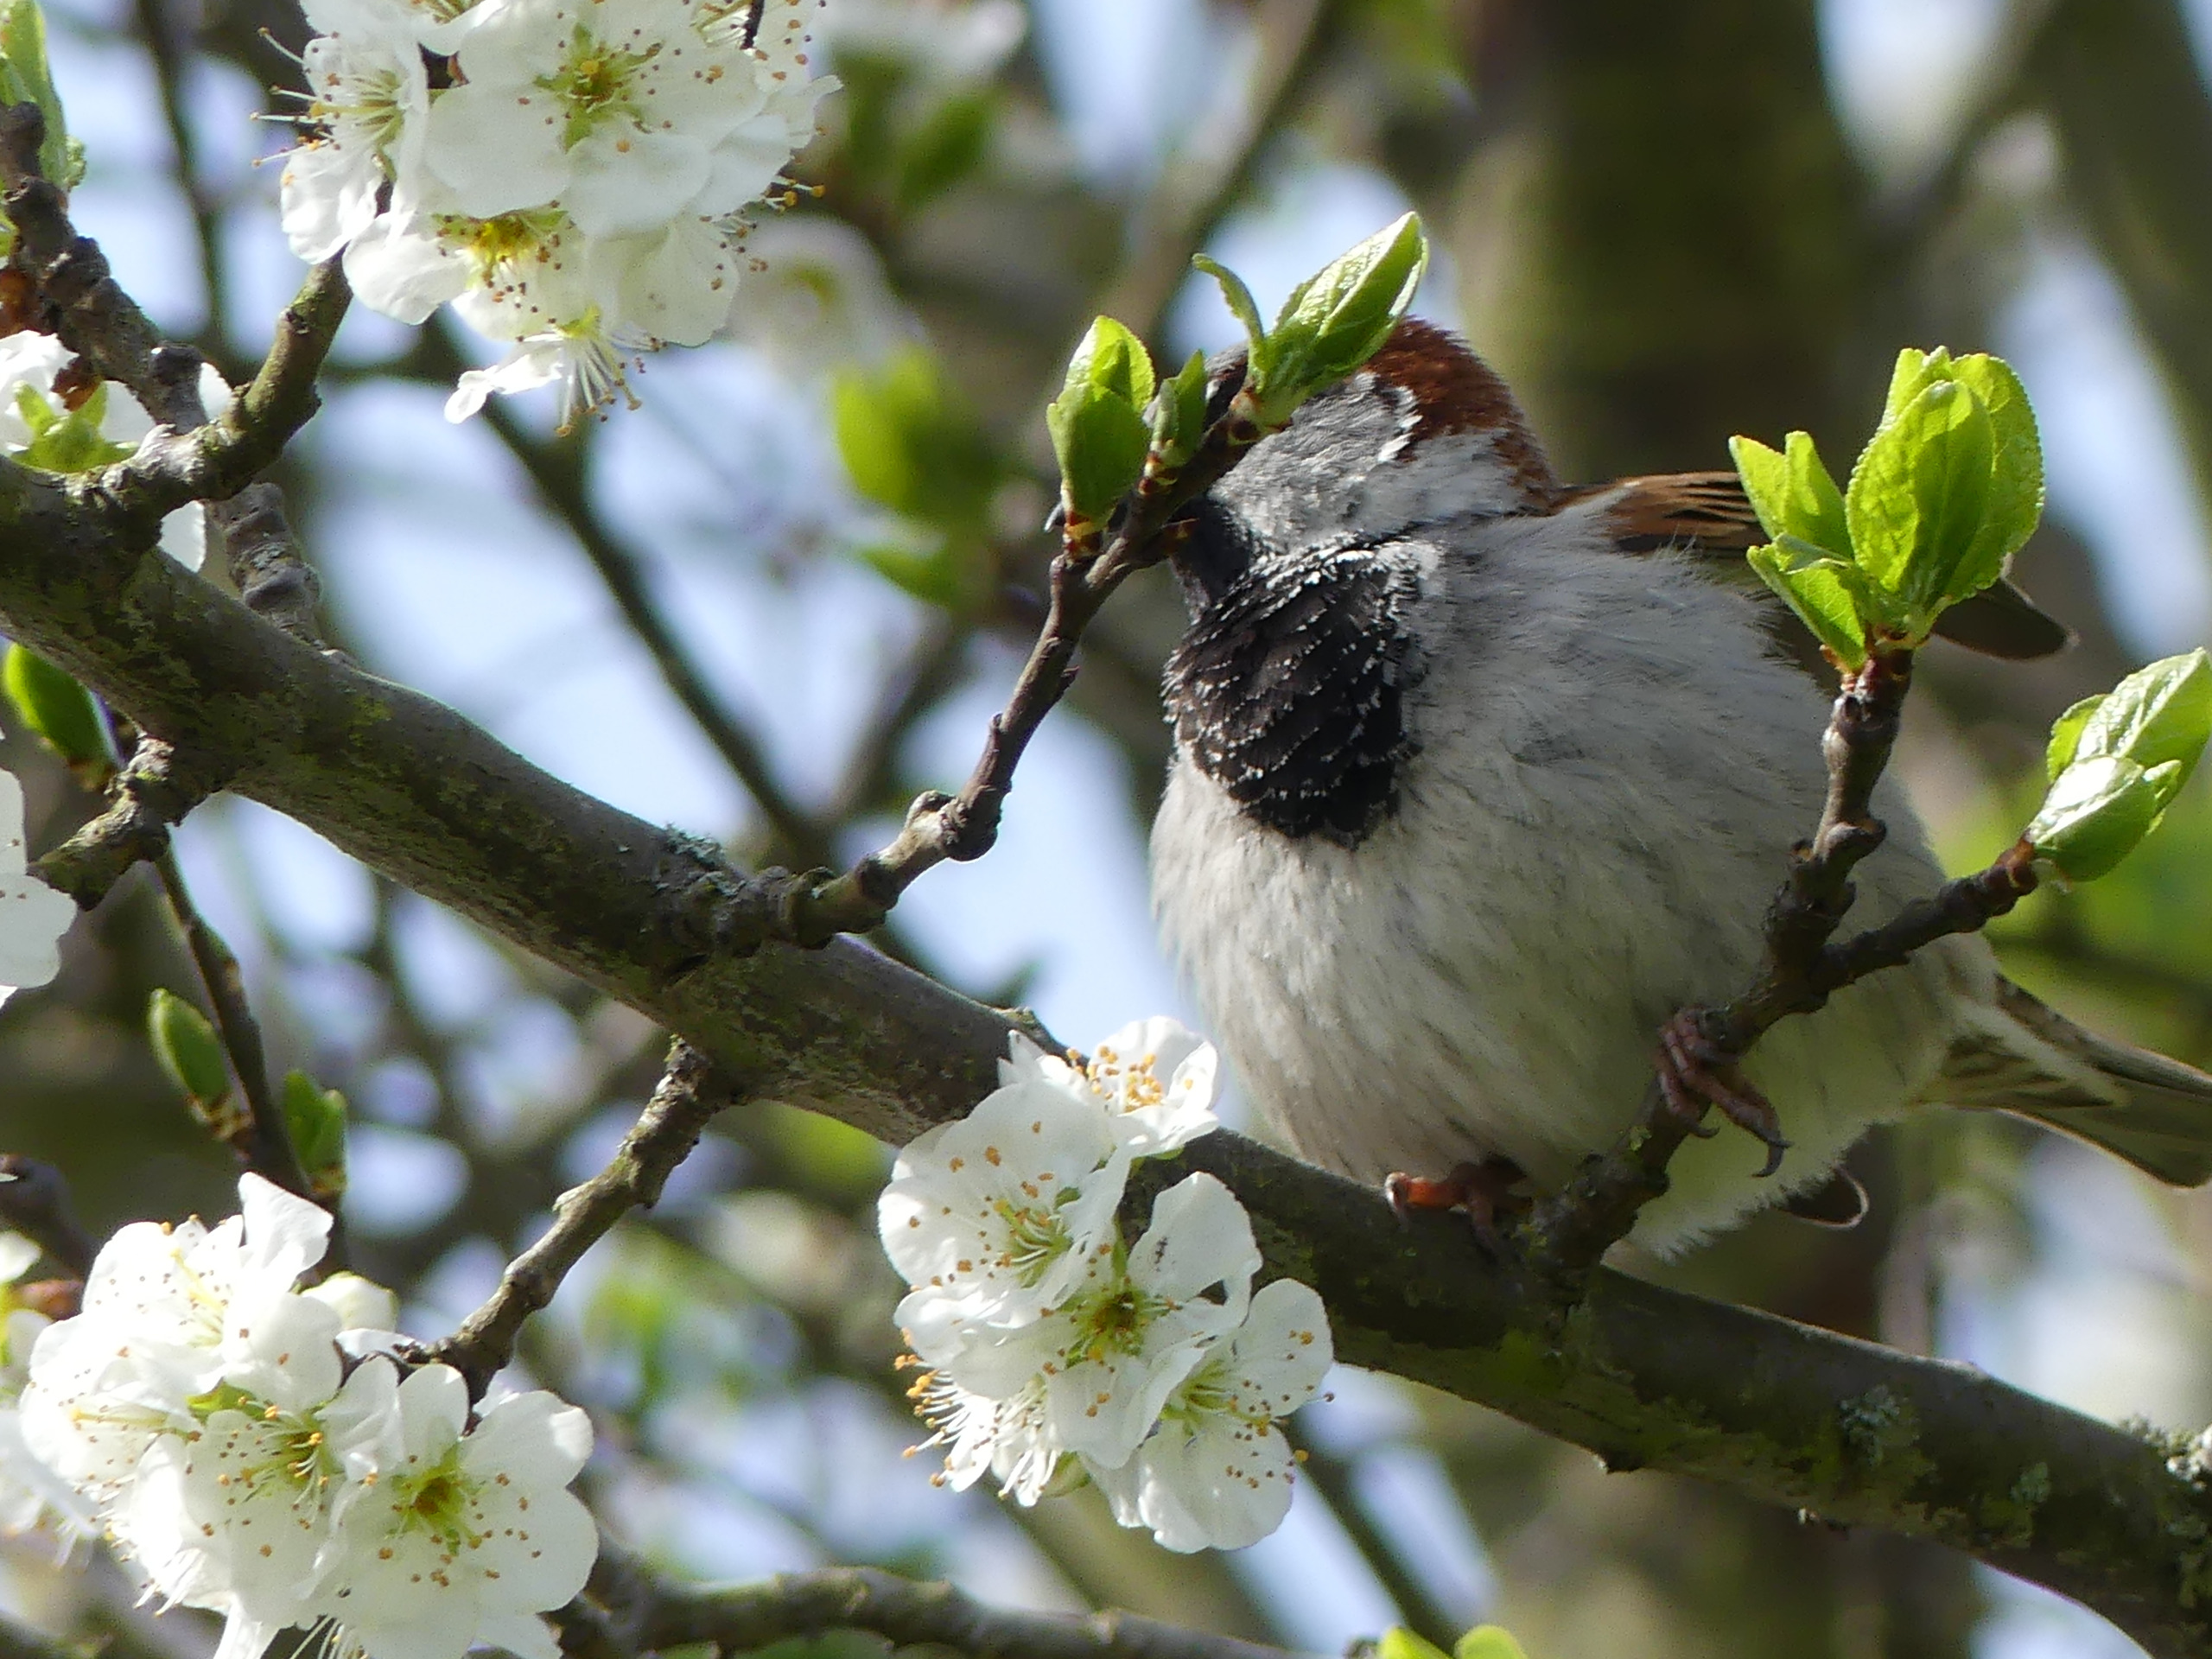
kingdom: Animalia
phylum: Chordata
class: Aves
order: Passeriformes
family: Passeridae
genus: Passer
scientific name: Passer domesticus
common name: Gråspurv
